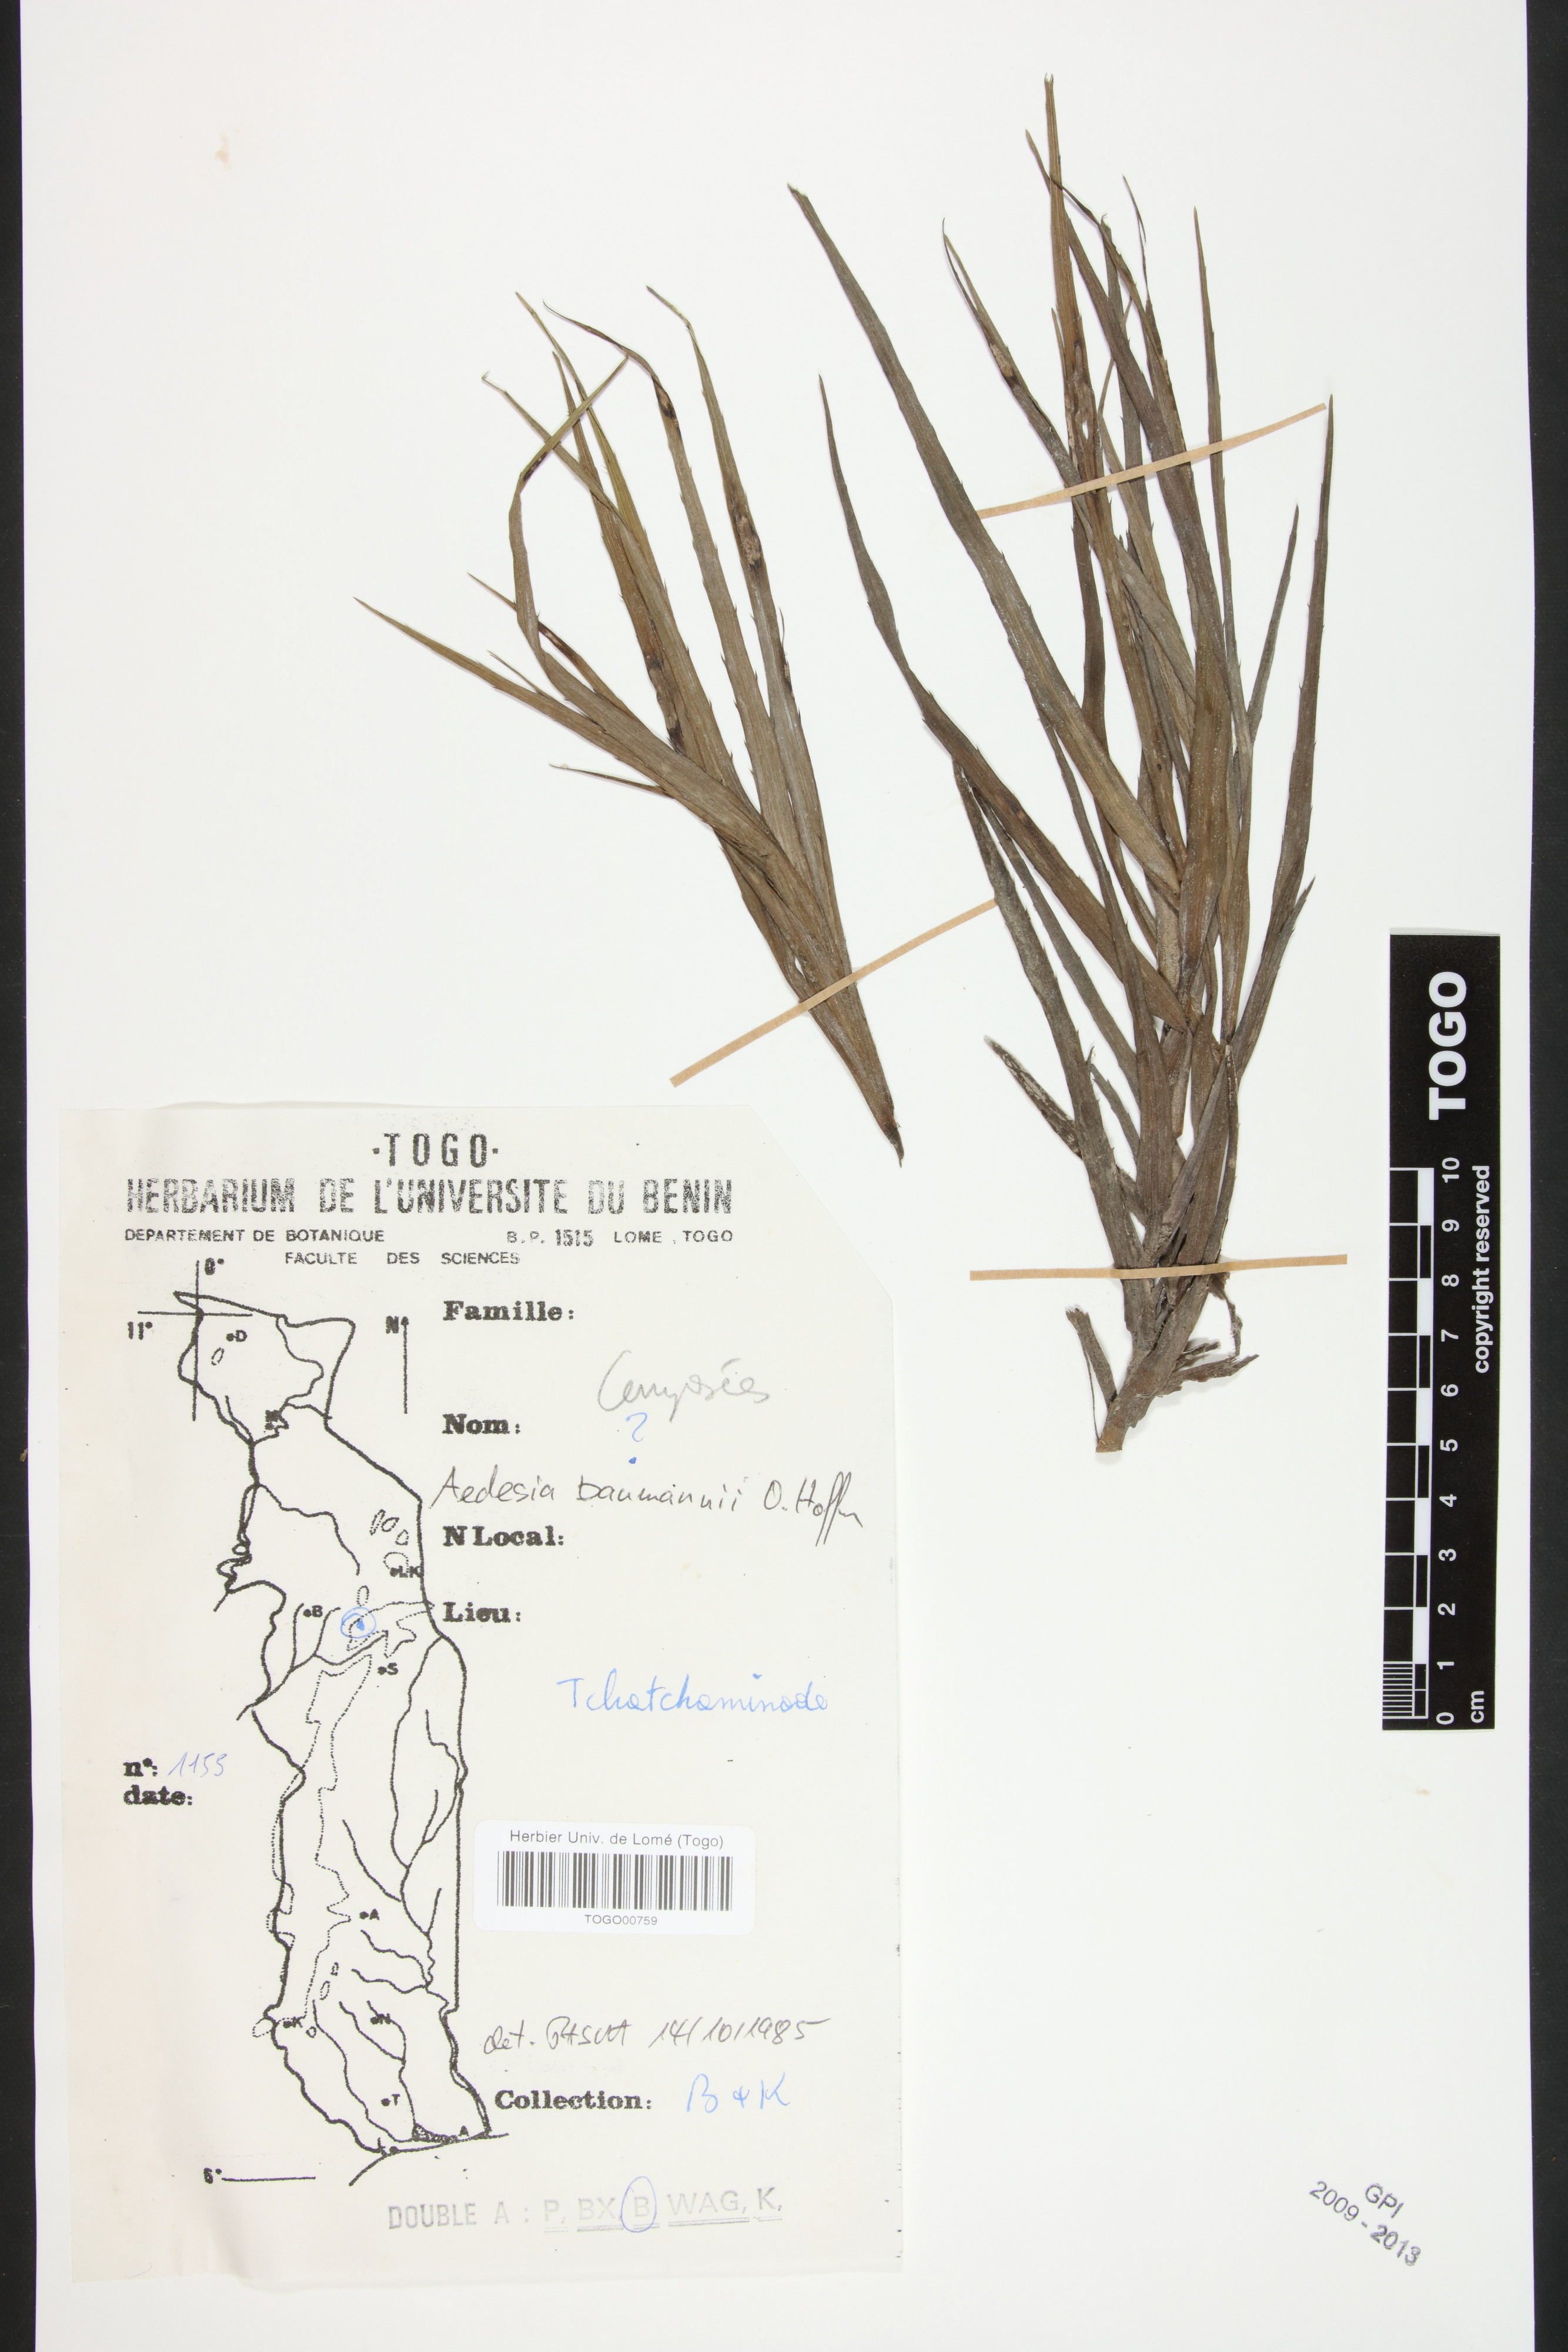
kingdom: Plantae
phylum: Tracheophyta
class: Magnoliopsida
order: Asterales
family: Asteraceae
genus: Aedesia
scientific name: Aedesia glabra
